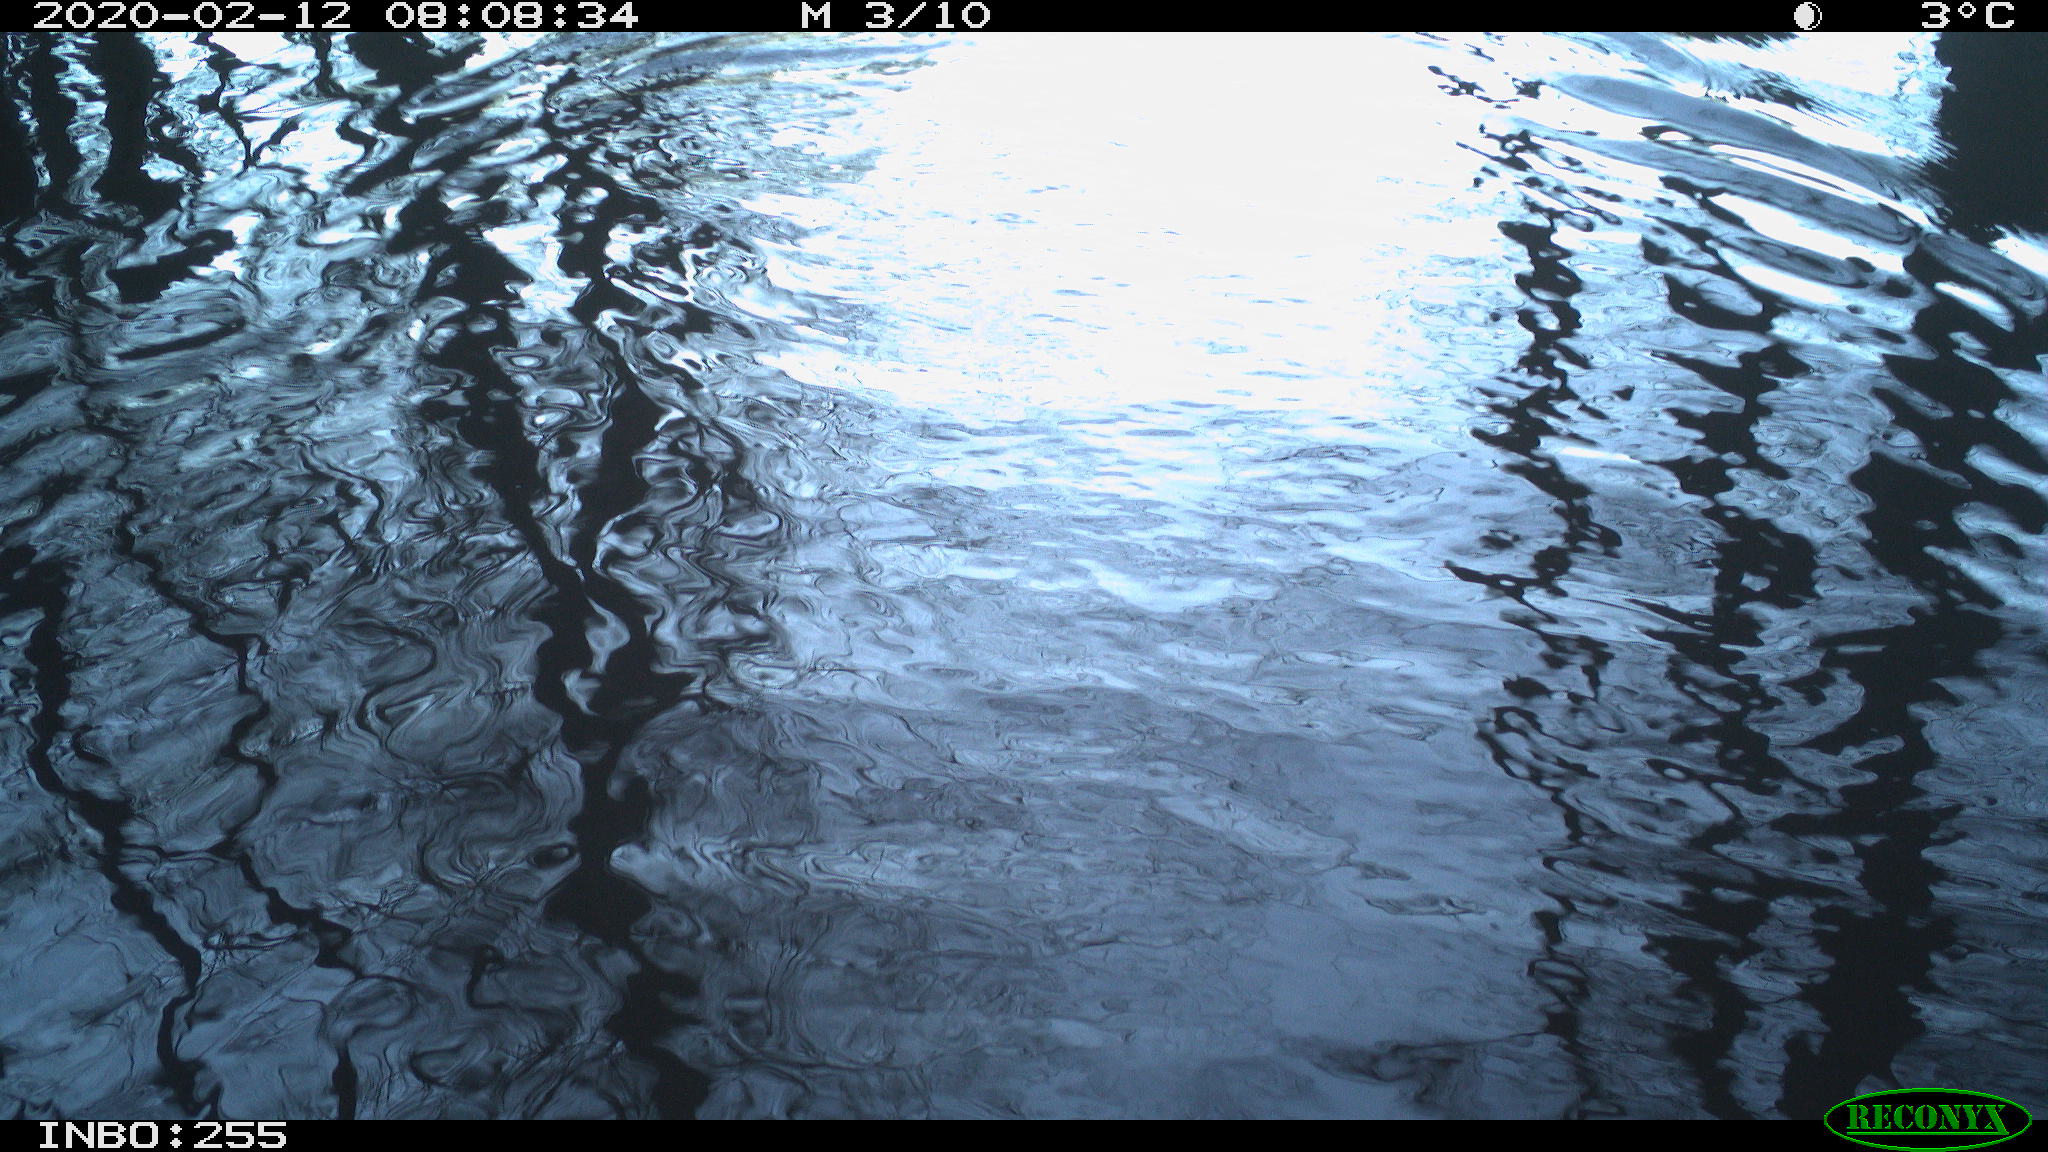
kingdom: Animalia
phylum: Chordata
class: Aves
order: Gruiformes
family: Rallidae
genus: Fulica
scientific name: Fulica atra
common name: Eurasian coot
